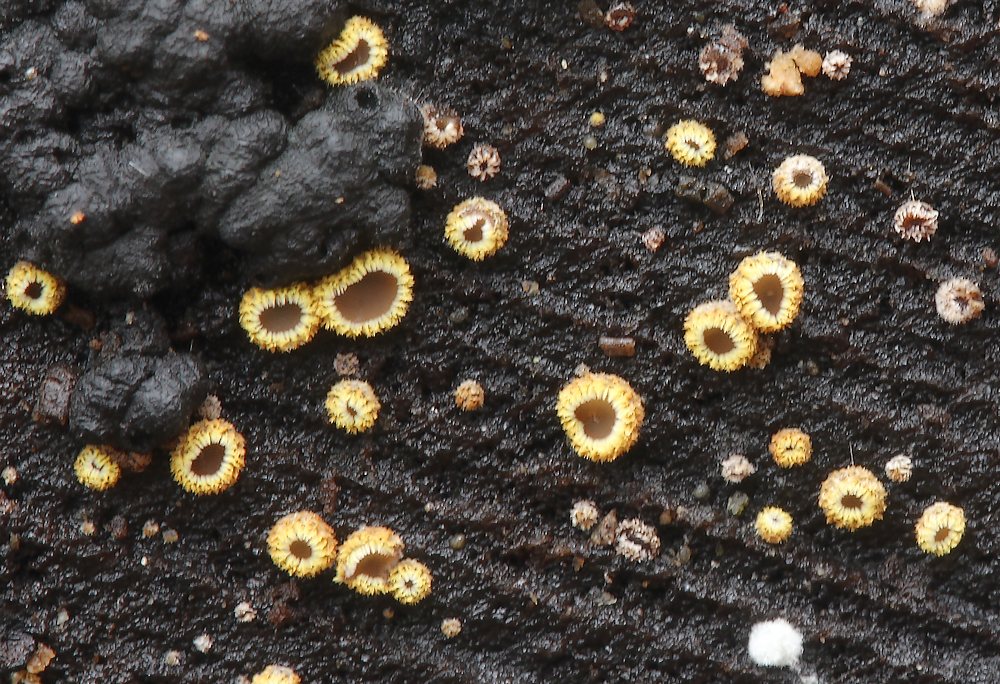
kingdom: Fungi
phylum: Ascomycota
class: Leotiomycetes
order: Helotiales
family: Lachnaceae
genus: Trichopeziza
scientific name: Trichopeziza subsulphurea
